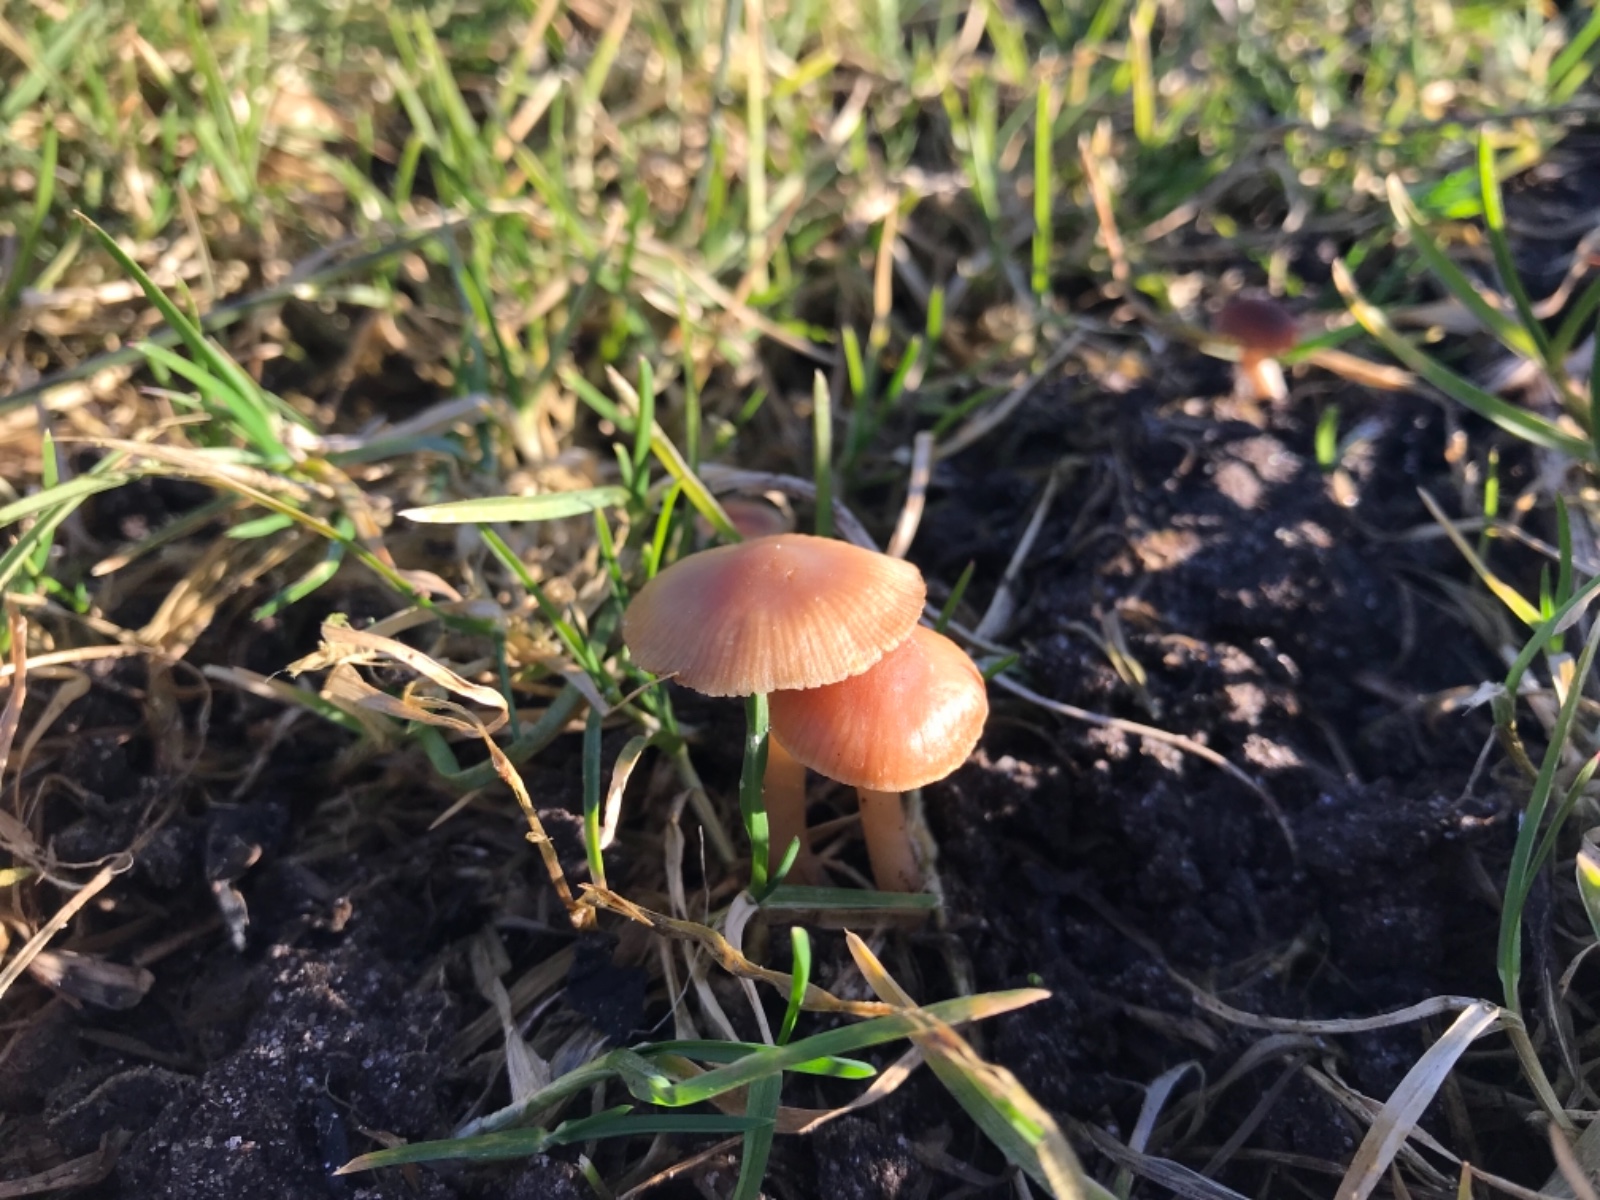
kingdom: Fungi
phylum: Basidiomycota
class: Agaricomycetes
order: Agaricales
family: Tubariaceae
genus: Tubaria
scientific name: Tubaria furfuracea
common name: kliddet fnughat
